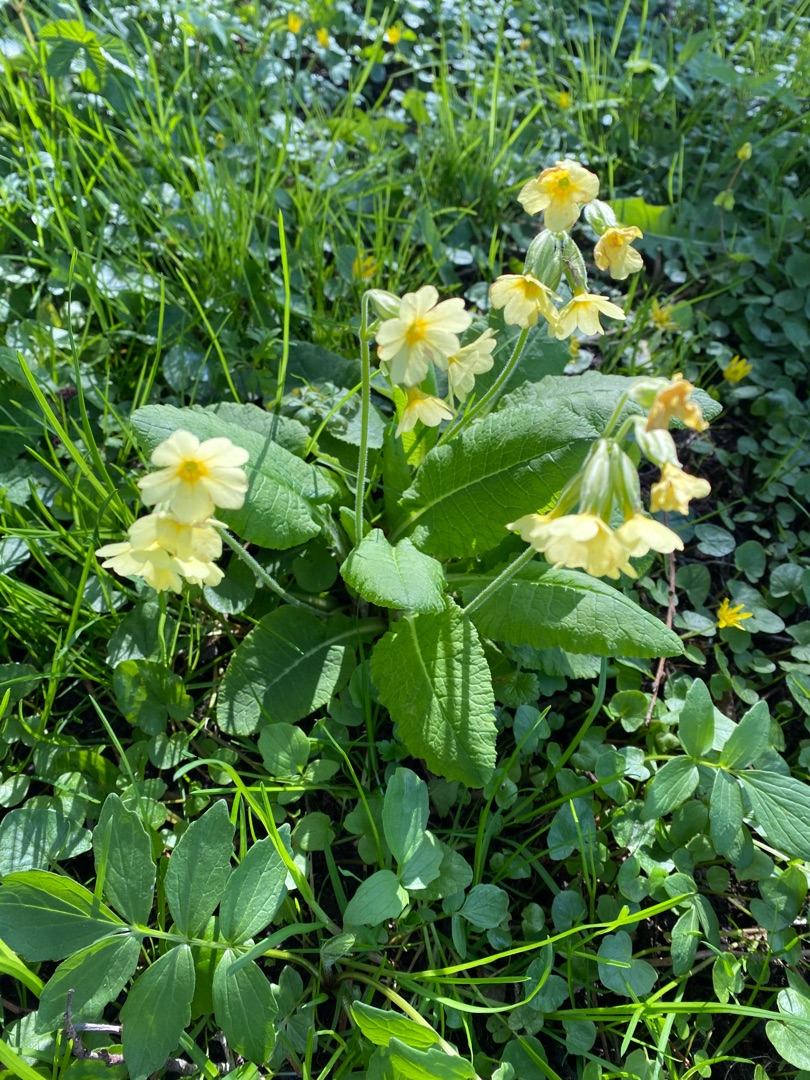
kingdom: Plantae
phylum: Tracheophyta
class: Magnoliopsida
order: Ericales
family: Primulaceae
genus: Primula
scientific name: Primula elatior
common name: Fladkravet kodriver
